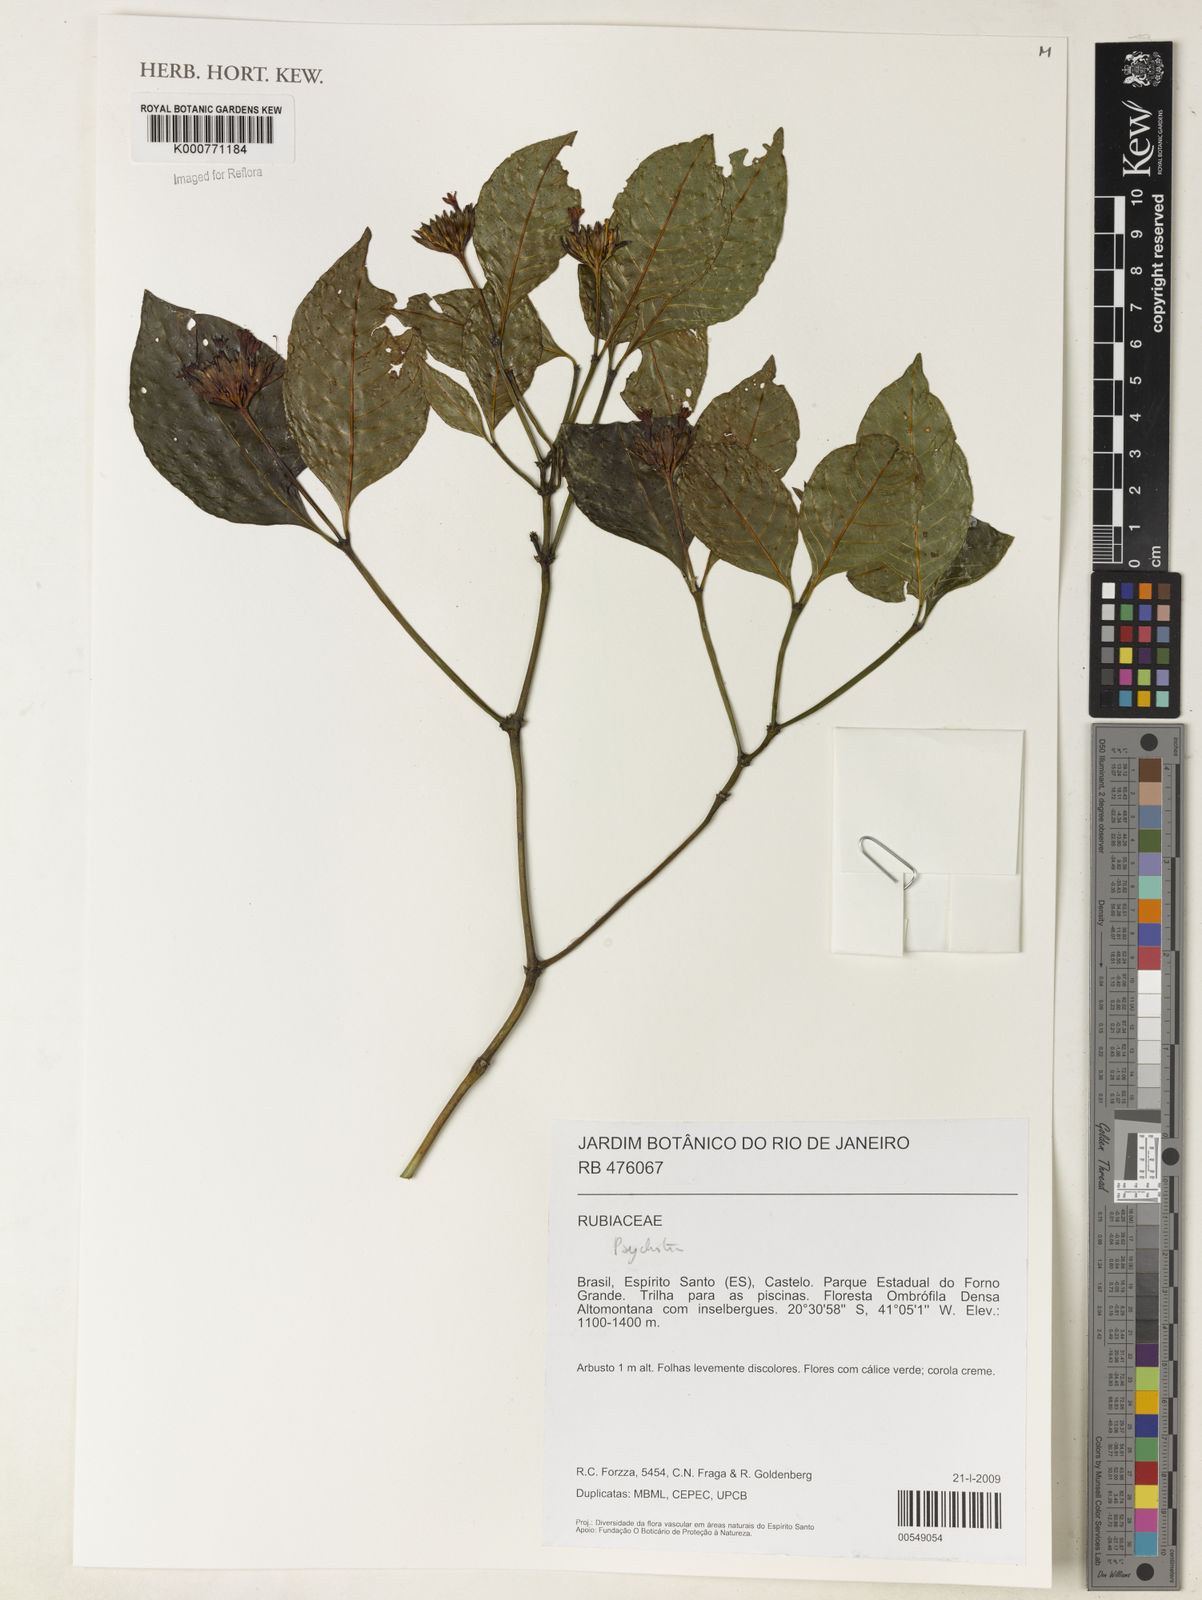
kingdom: Plantae
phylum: Tracheophyta
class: Magnoliopsida
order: Gentianales
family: Rubiaceae
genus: Psychotria
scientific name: Psychotria
